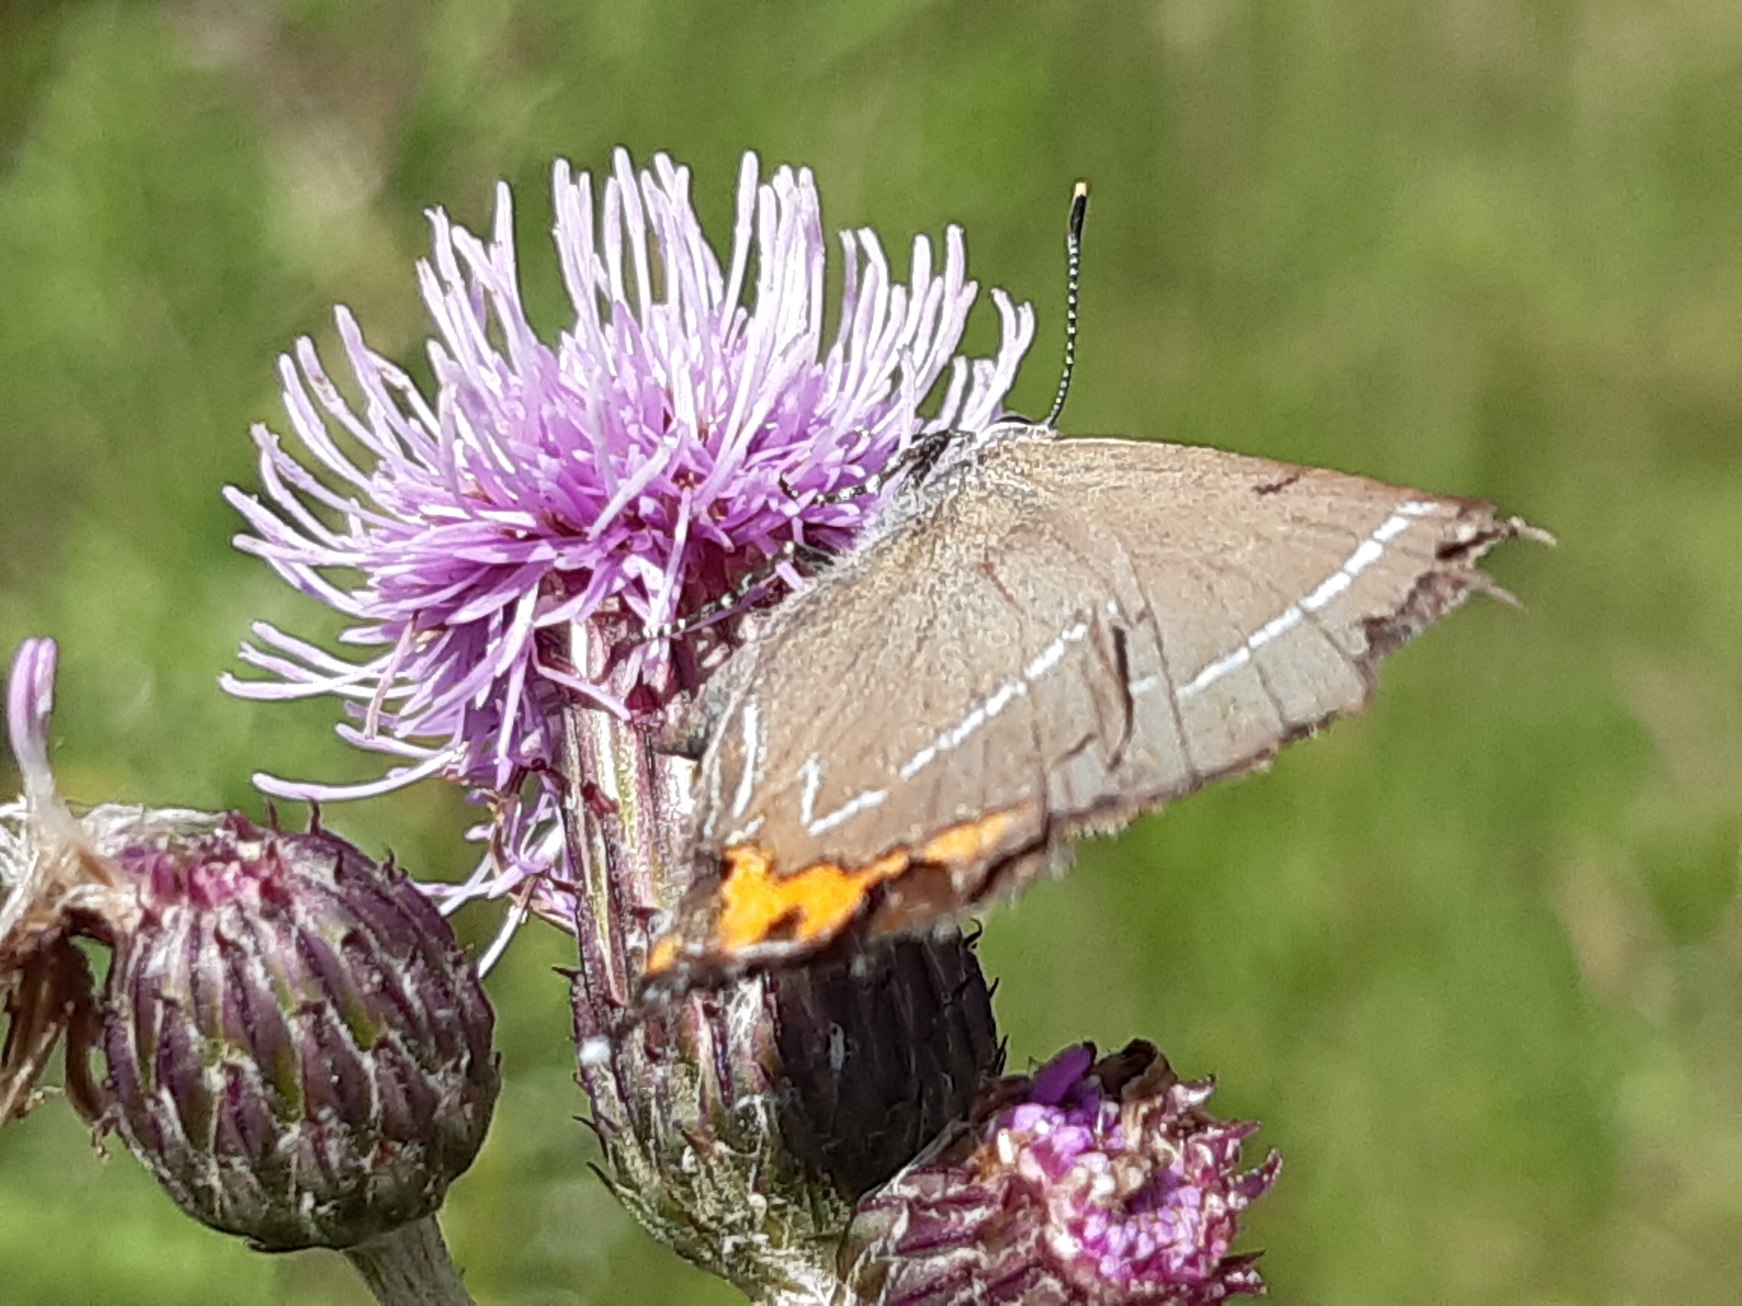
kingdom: Animalia
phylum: Arthropoda
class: Insecta
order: Lepidoptera
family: Lycaenidae
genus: Satyrium
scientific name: Satyrium w-album
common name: Det hvide W
